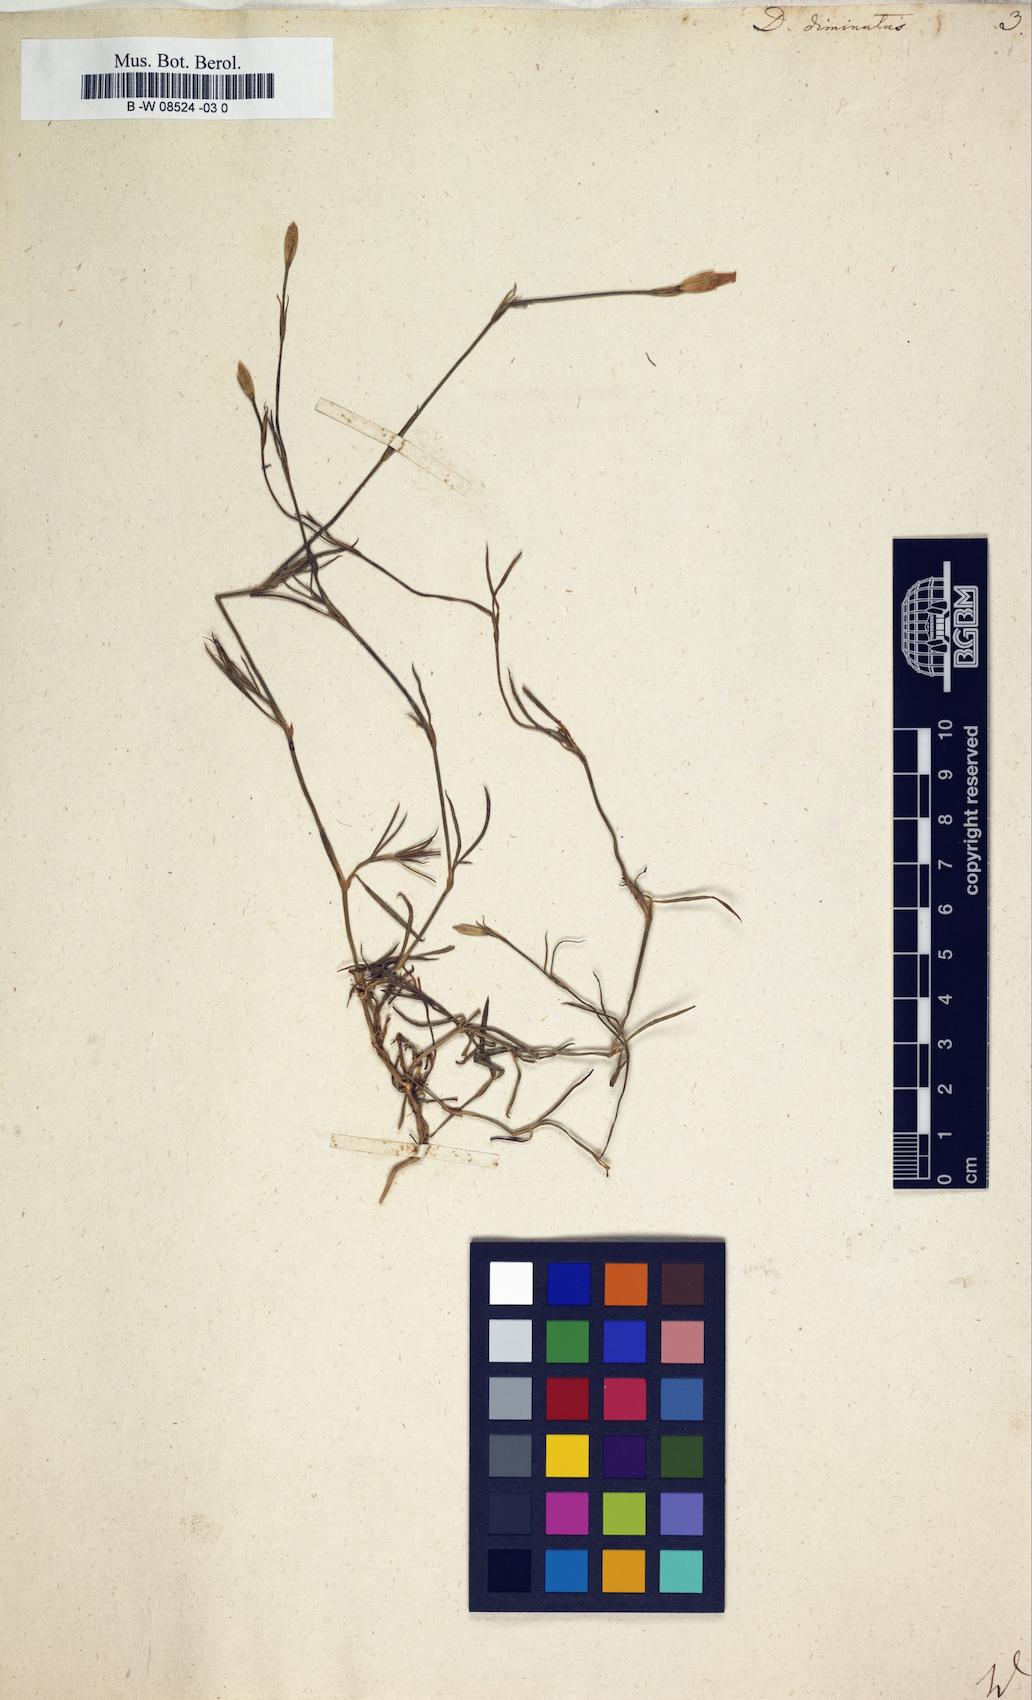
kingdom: Plantae
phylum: Tracheophyta
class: Magnoliopsida
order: Caryophyllales
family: Caryophyllaceae
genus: Petrorhagia
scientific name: Petrorhagia prolifera
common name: Proliferous pink
